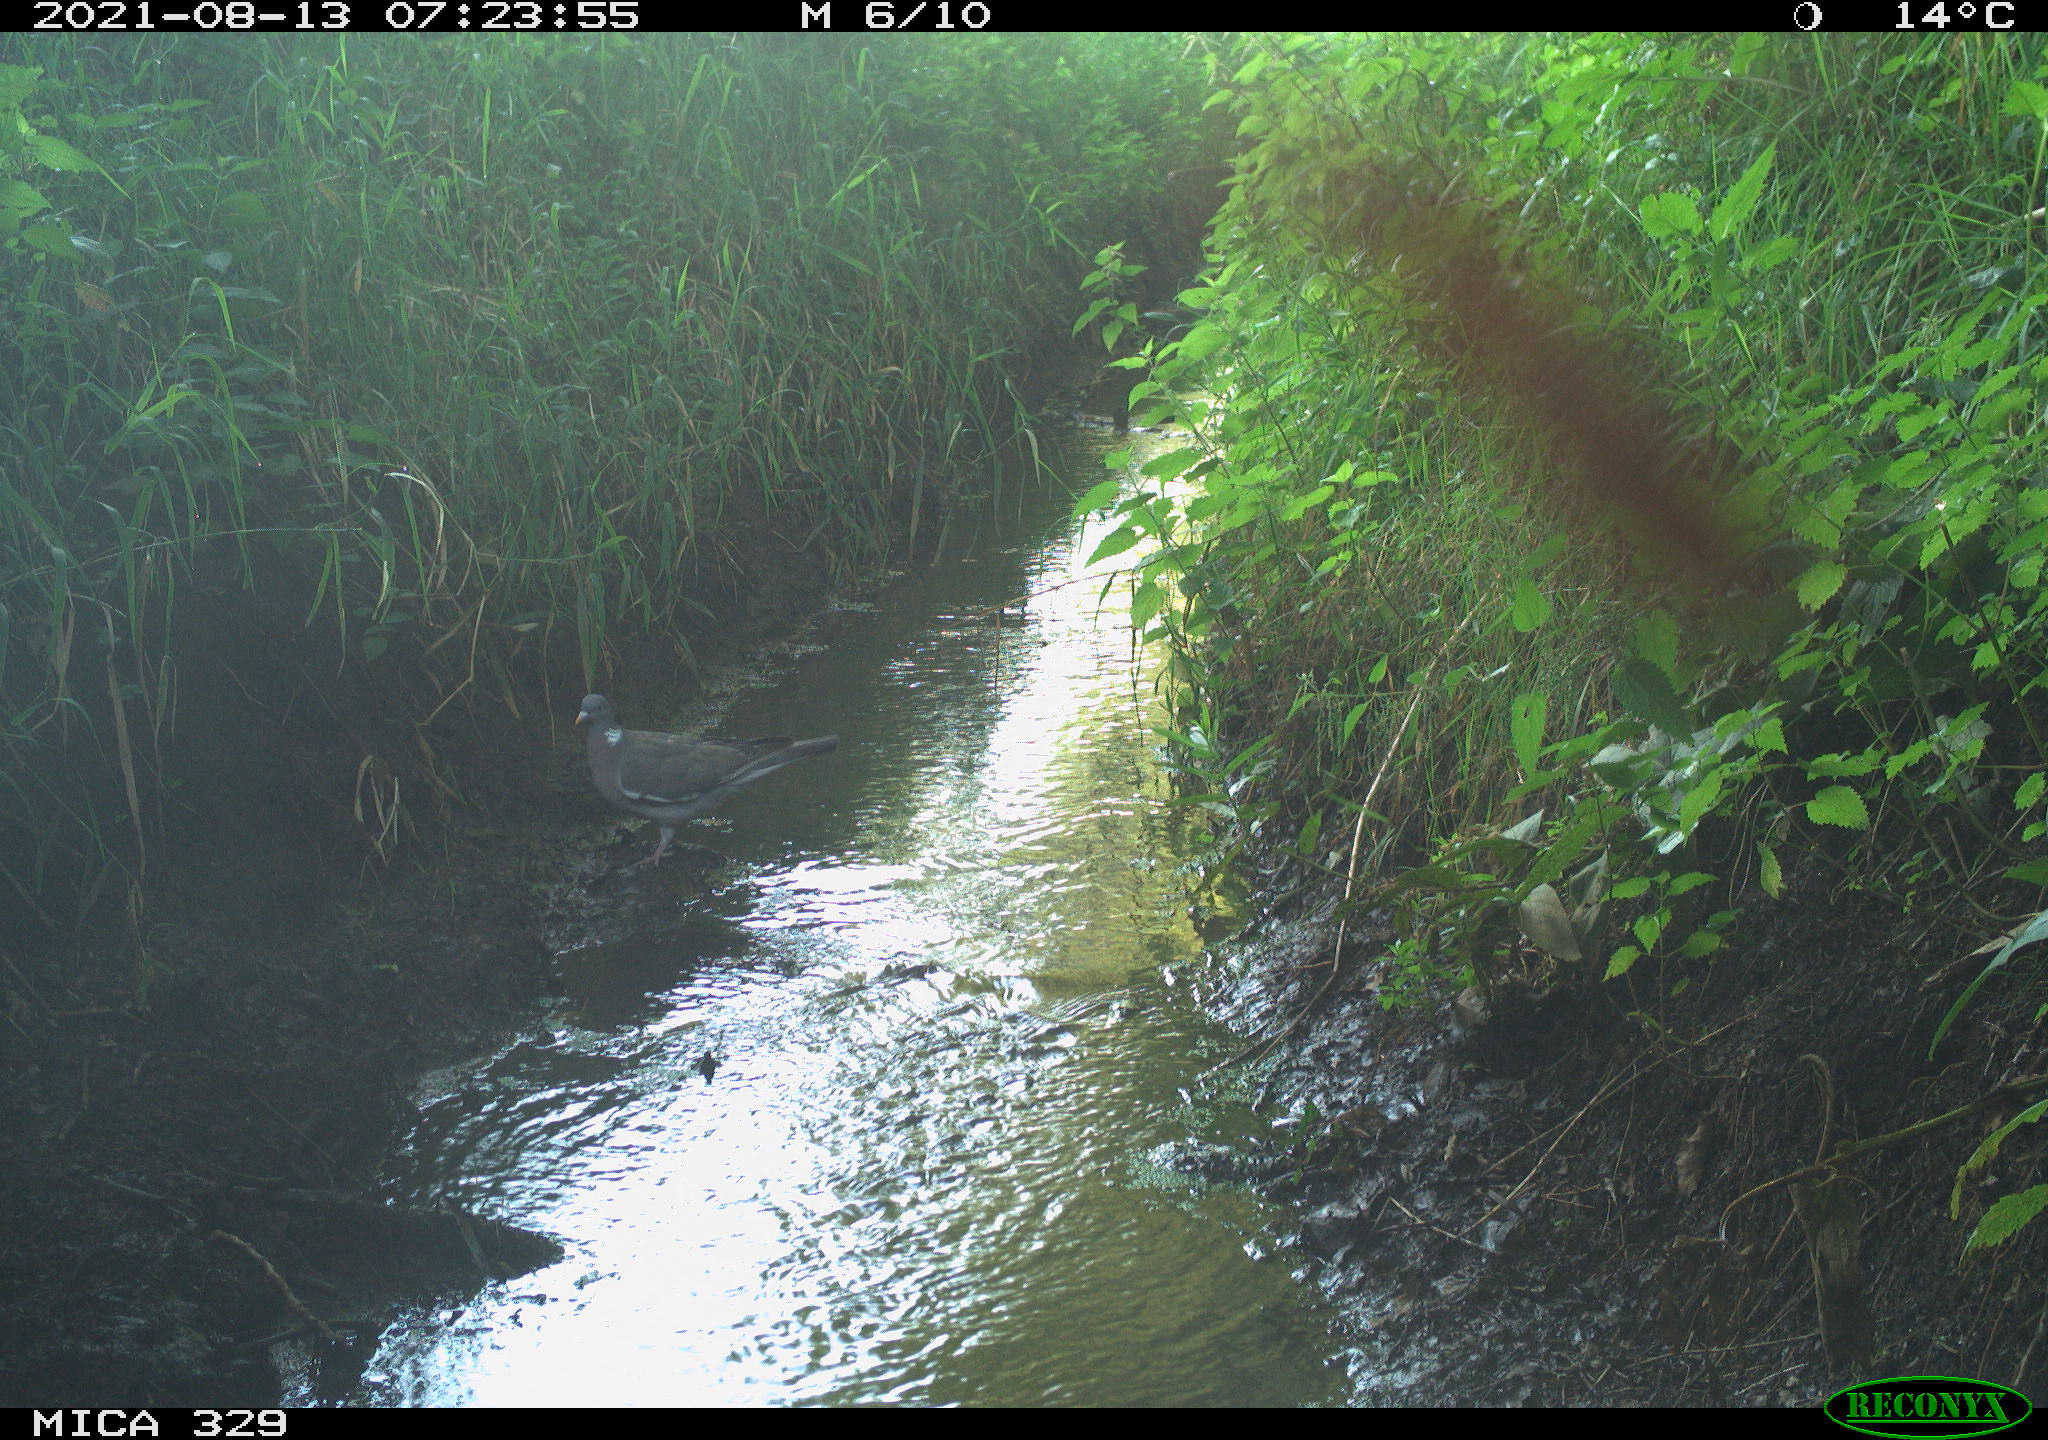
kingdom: Animalia
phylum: Chordata
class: Aves
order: Columbiformes
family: Columbidae
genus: Columba
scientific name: Columba palumbus
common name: Common wood pigeon
